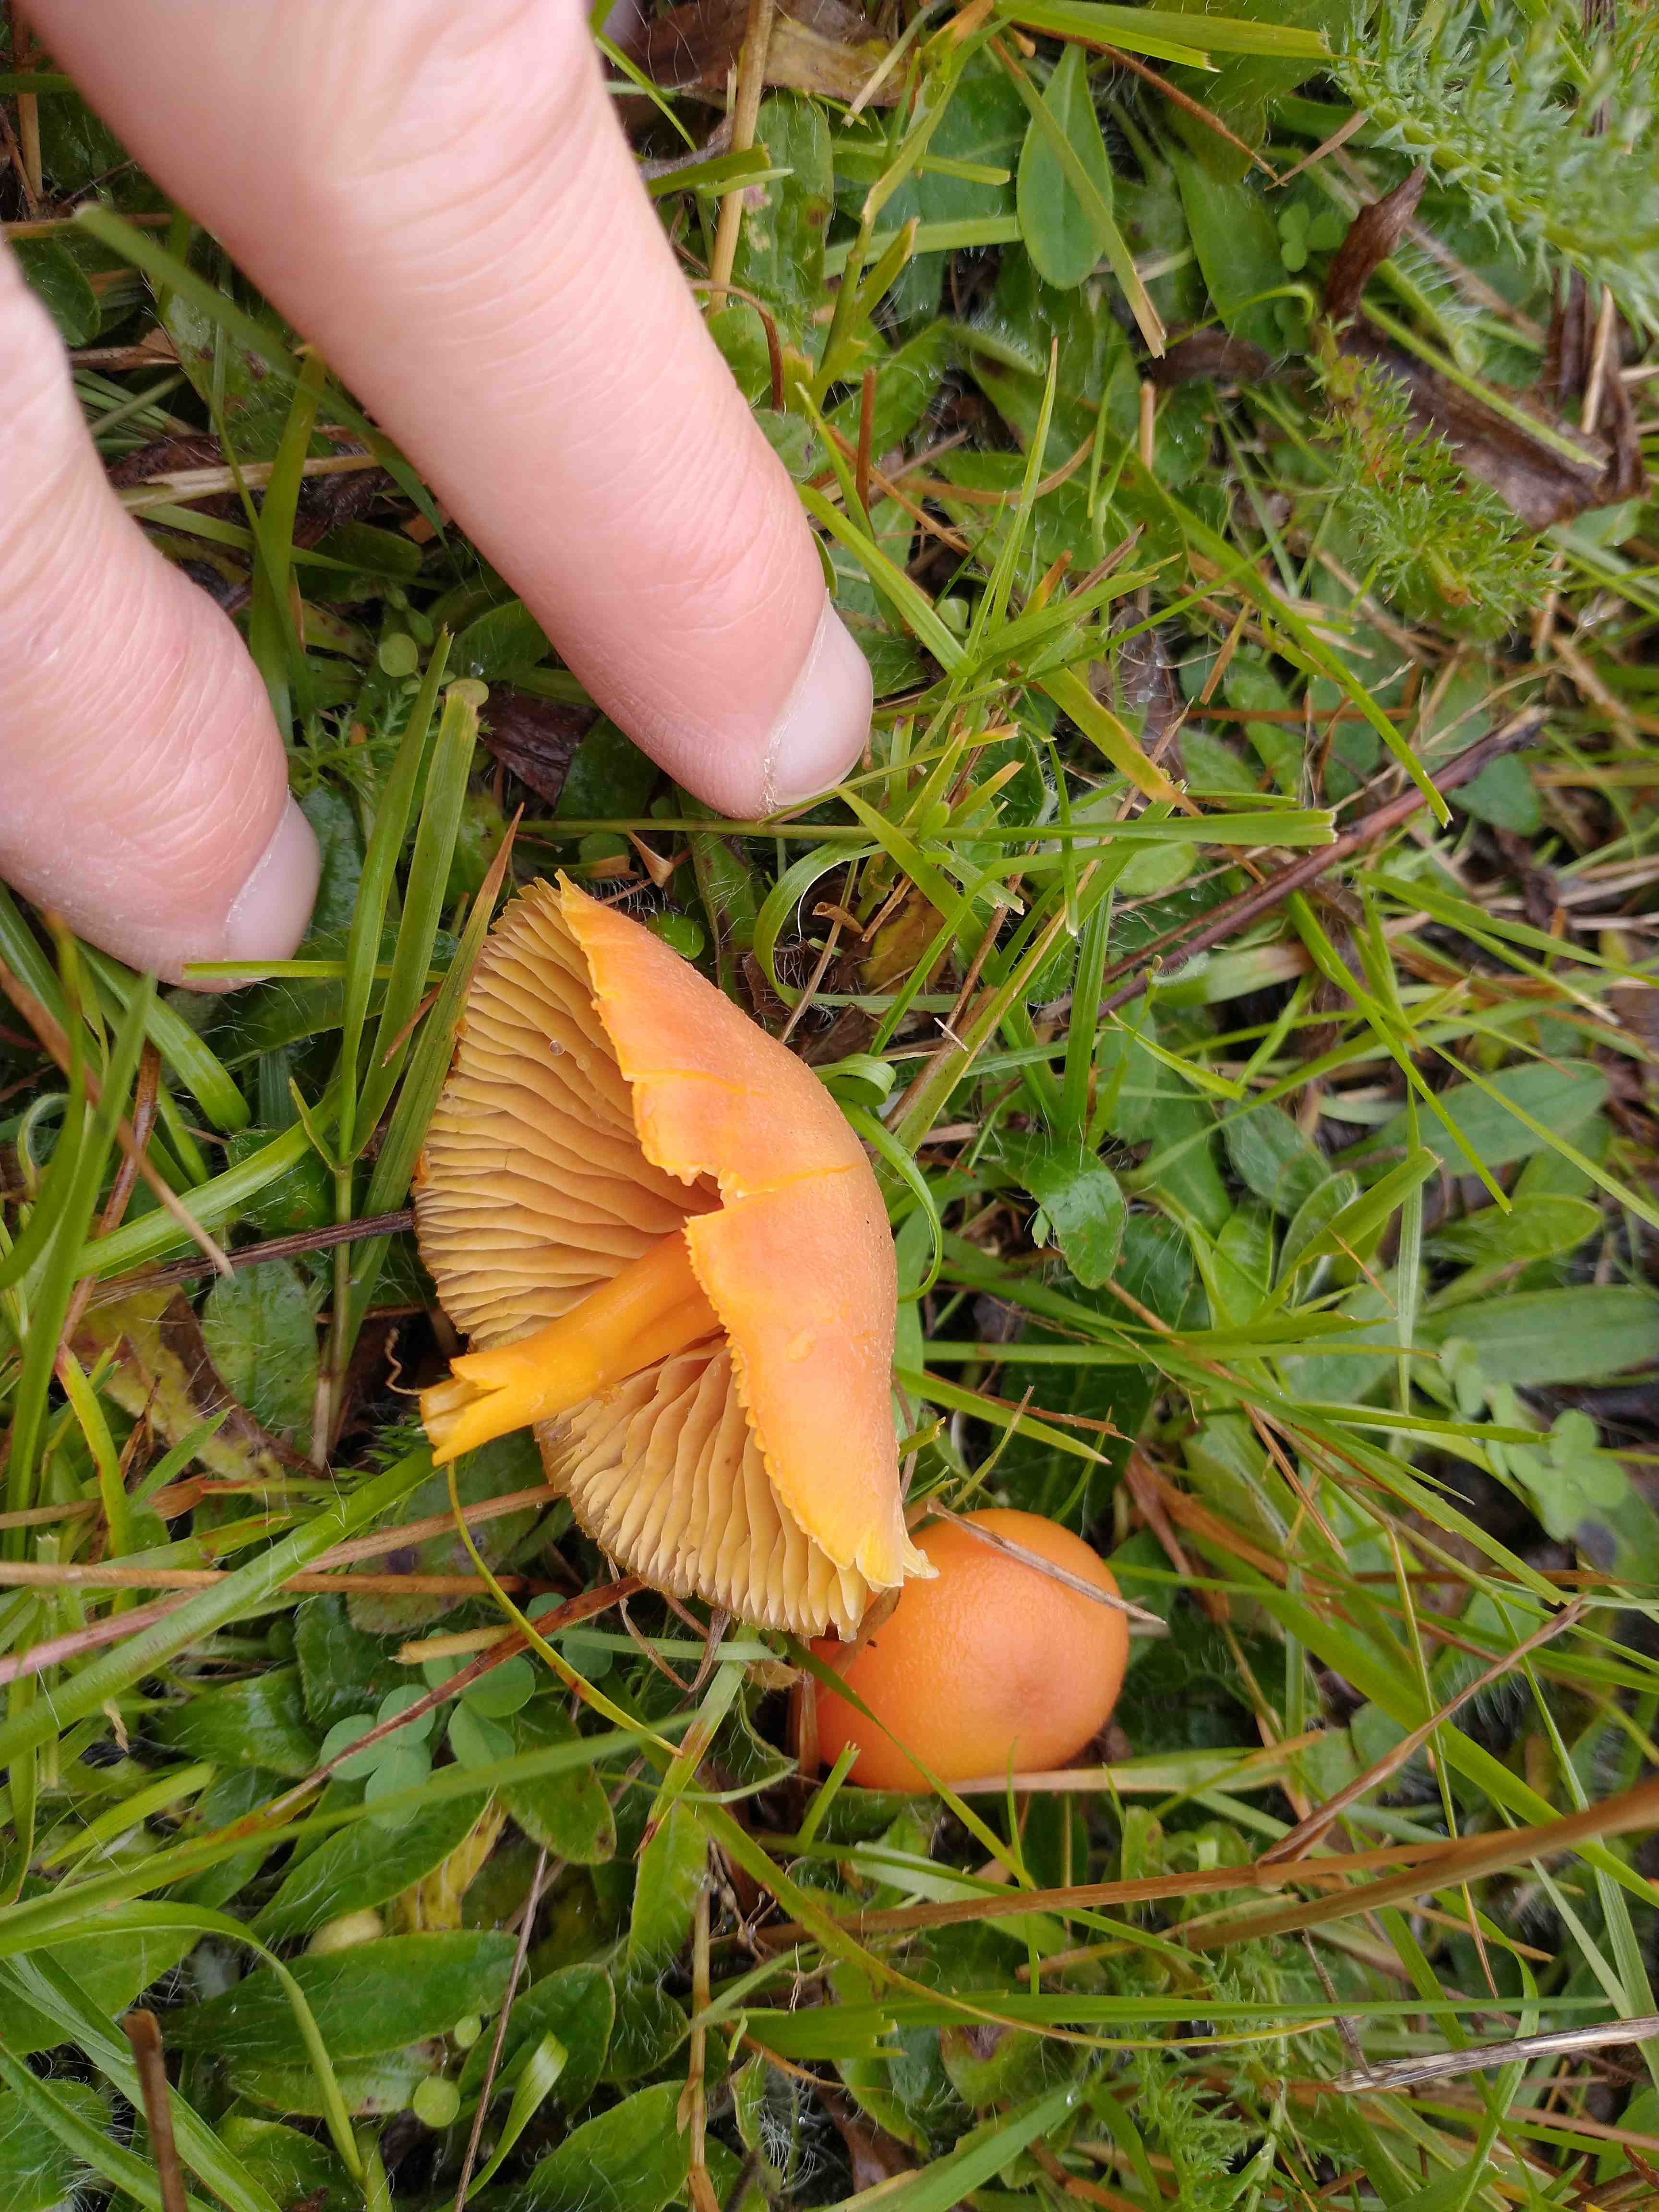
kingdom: Fungi
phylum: Basidiomycota
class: Agaricomycetes
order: Agaricales
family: Hygrophoraceae
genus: Hygrocybe
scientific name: Hygrocybe
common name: vokshat
